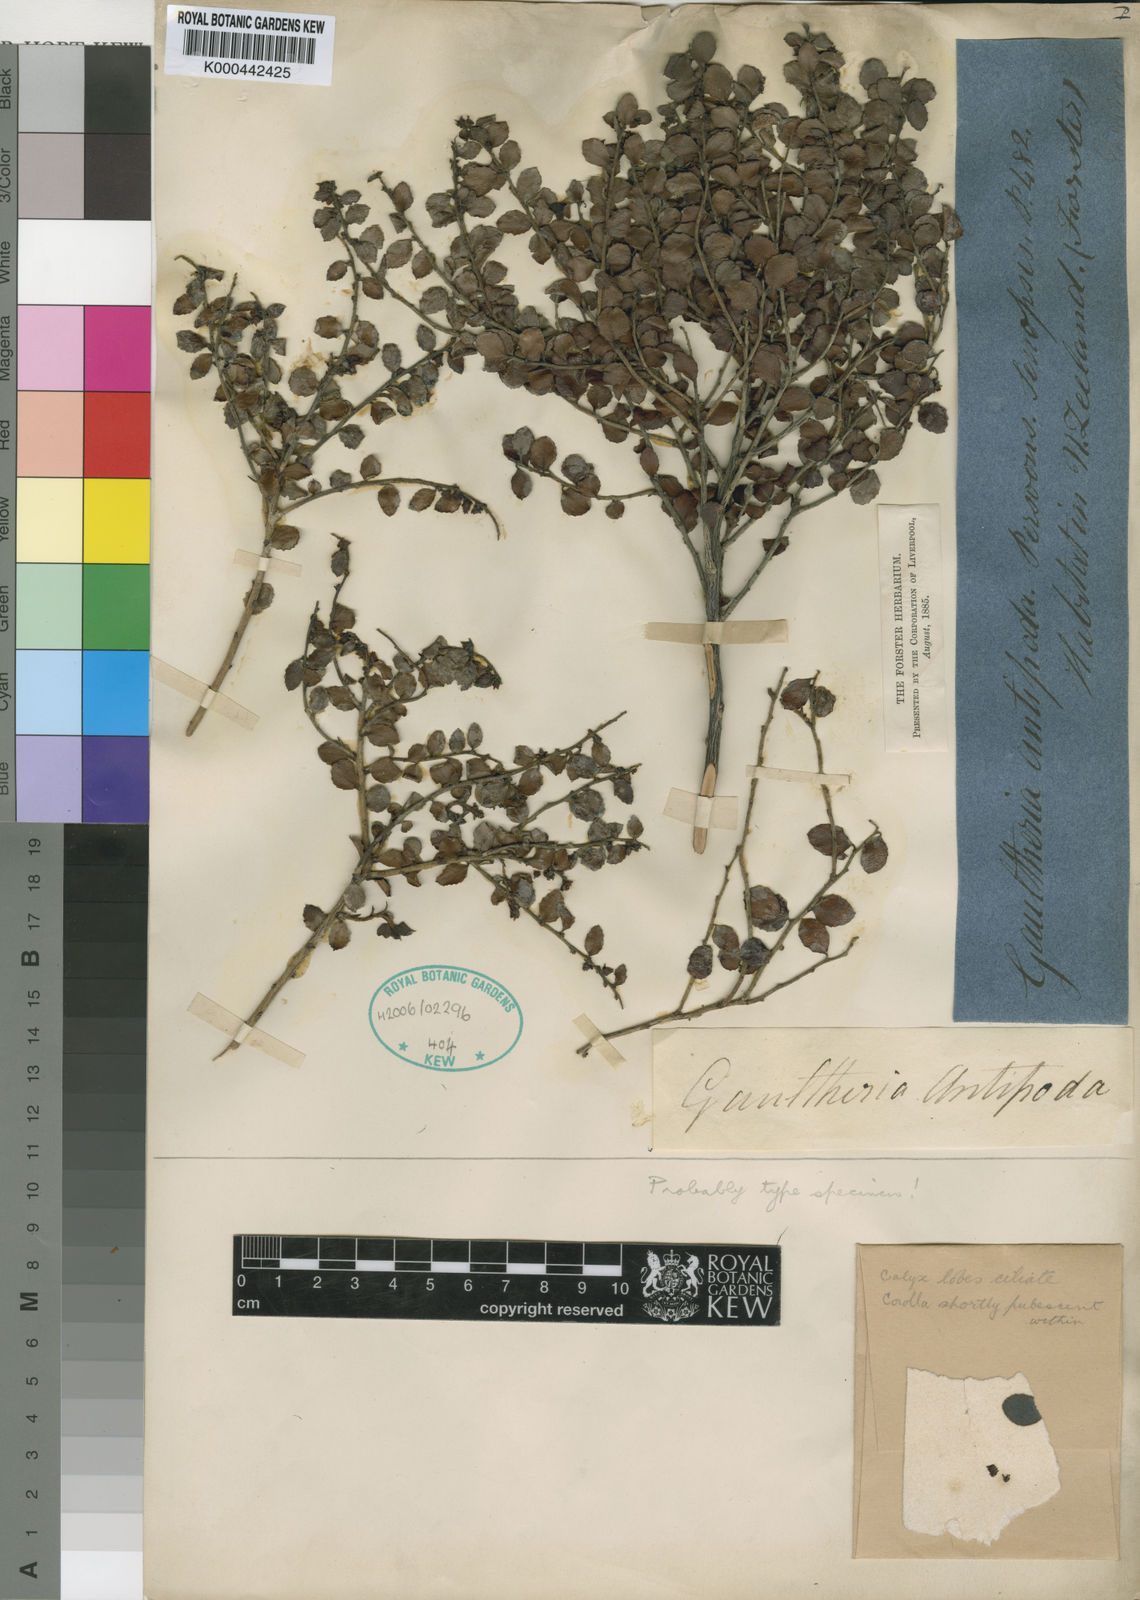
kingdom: Plantae
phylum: Tracheophyta
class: Magnoliopsida
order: Ericales
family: Ericaceae
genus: Gaultheria
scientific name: Gaultheria antipoda
